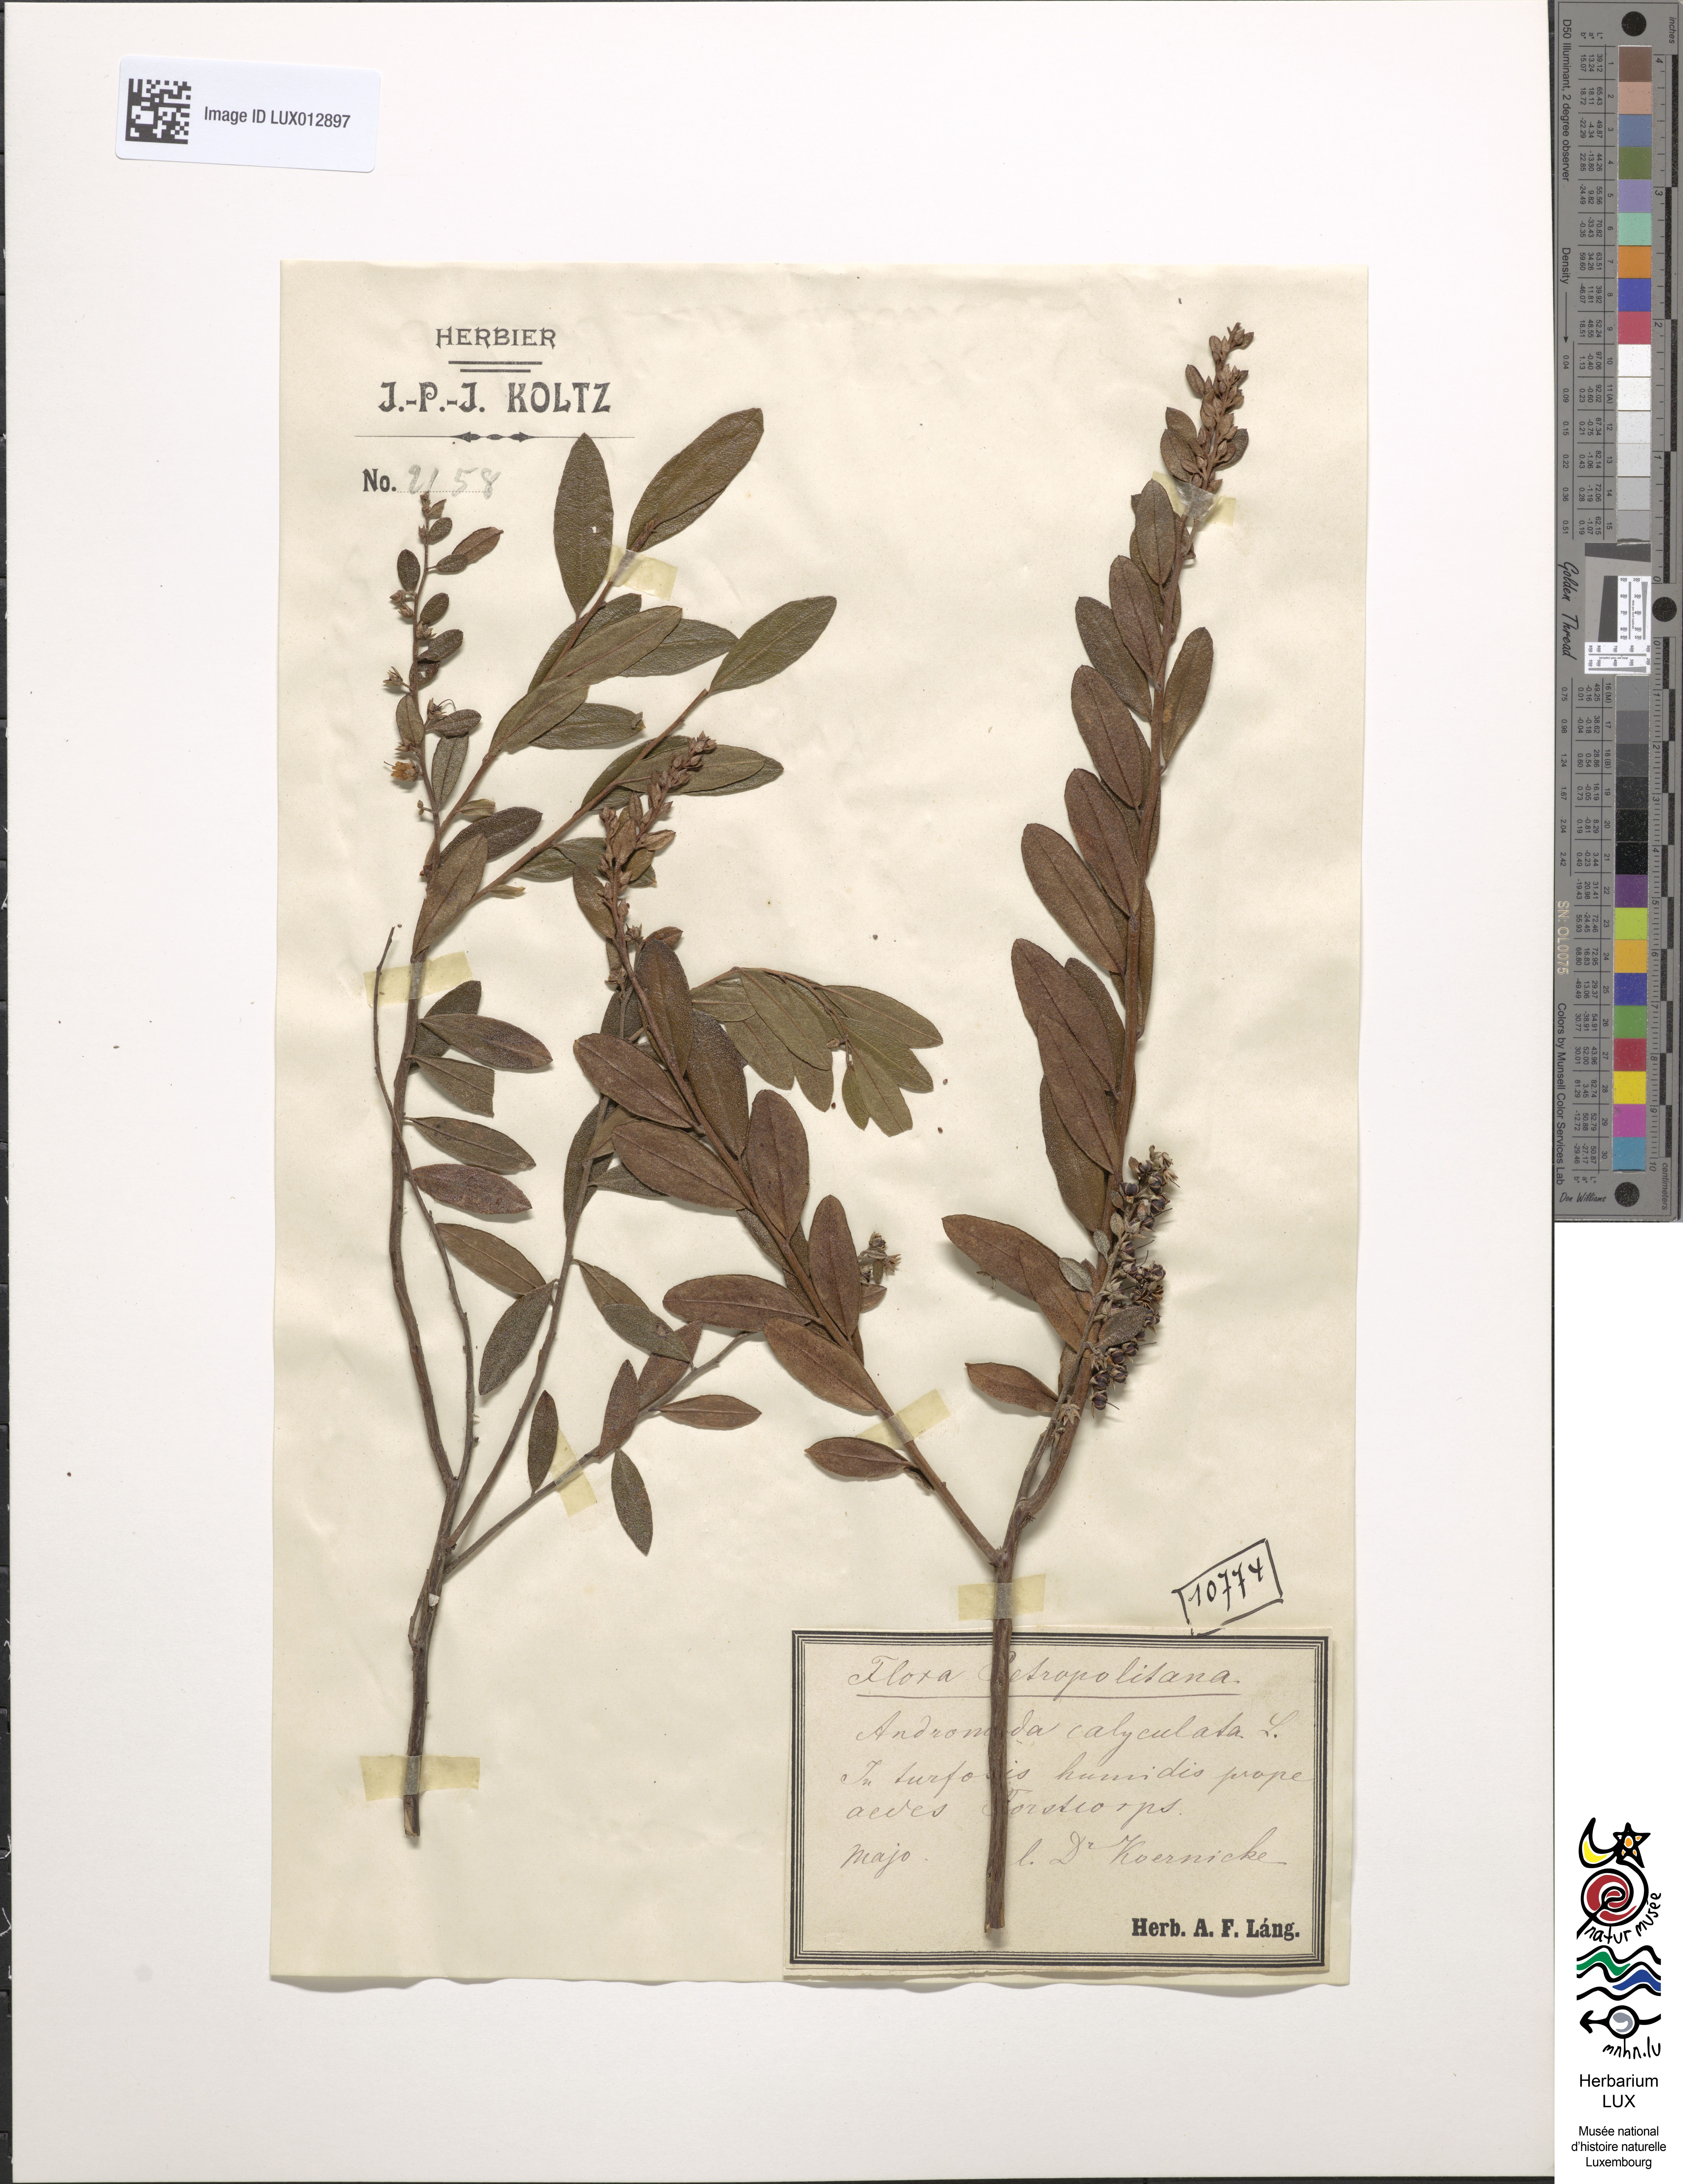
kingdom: Plantae
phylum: Tracheophyta
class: Magnoliopsida
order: Ericales
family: Ericaceae
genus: Chamaedaphne
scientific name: Chamaedaphne calyculata
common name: Leatherleaf
